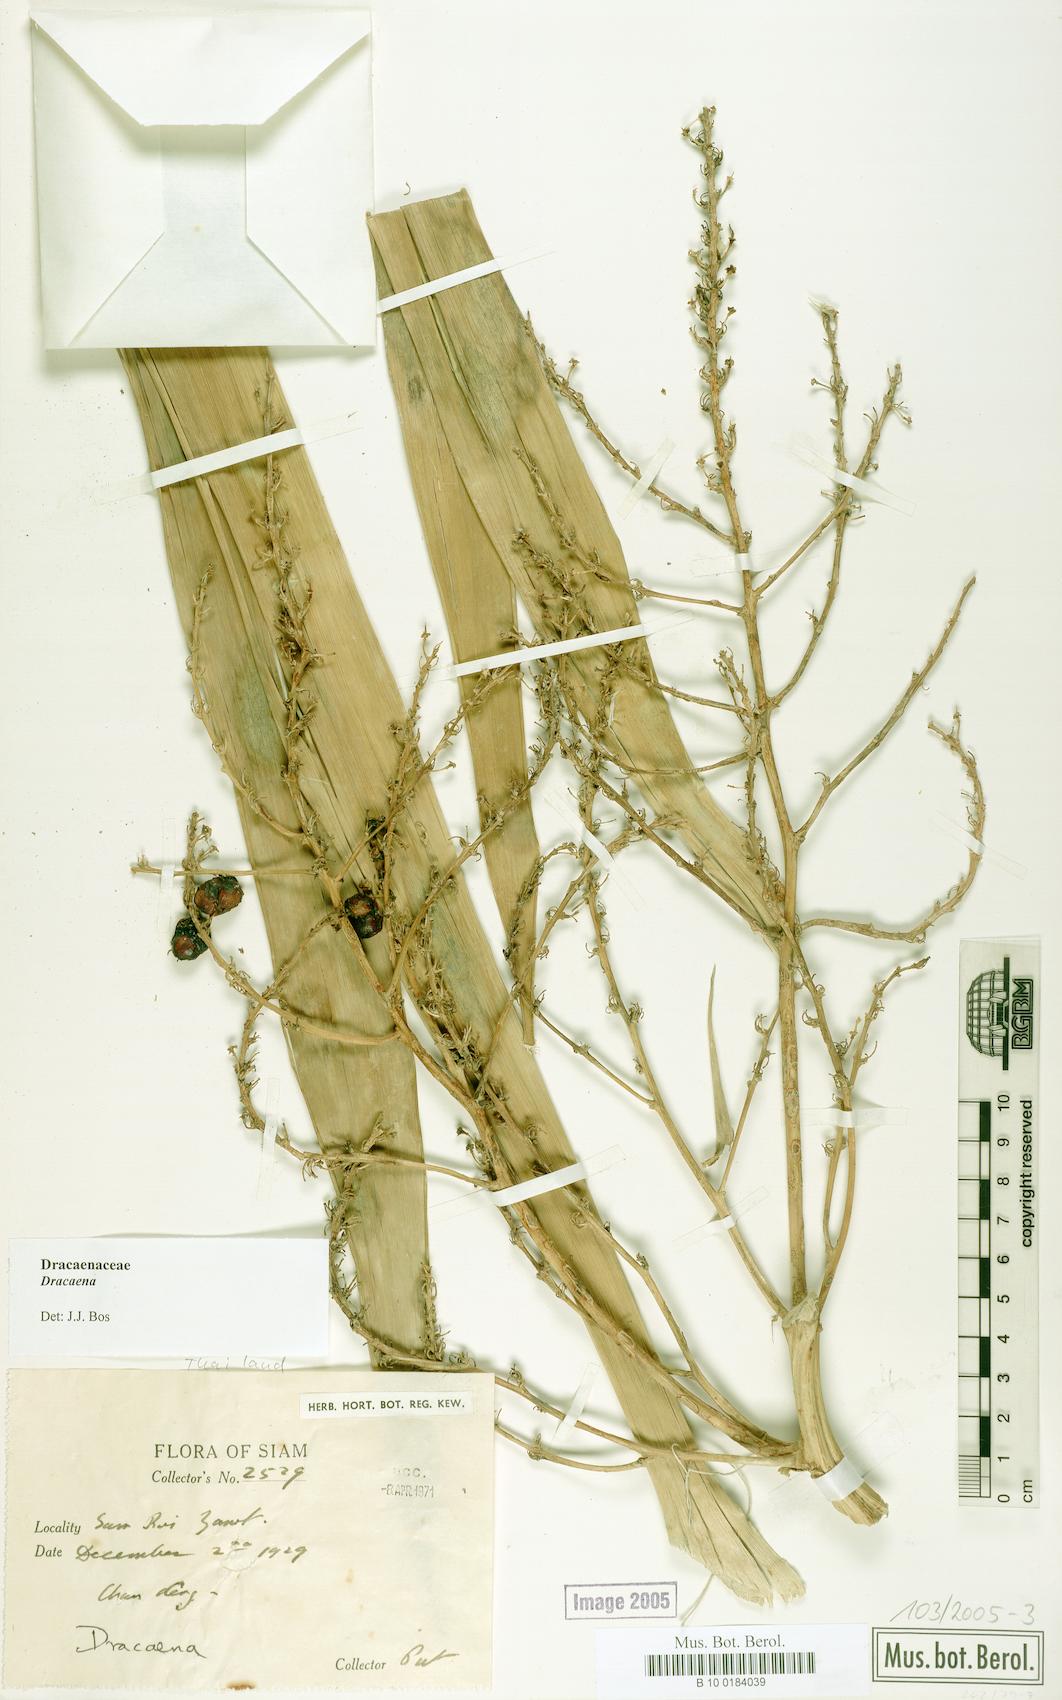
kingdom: Plantae
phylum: Tracheophyta
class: Liliopsida
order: Asparagales
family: Asparagaceae
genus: Dracaena
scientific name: Dracaena
